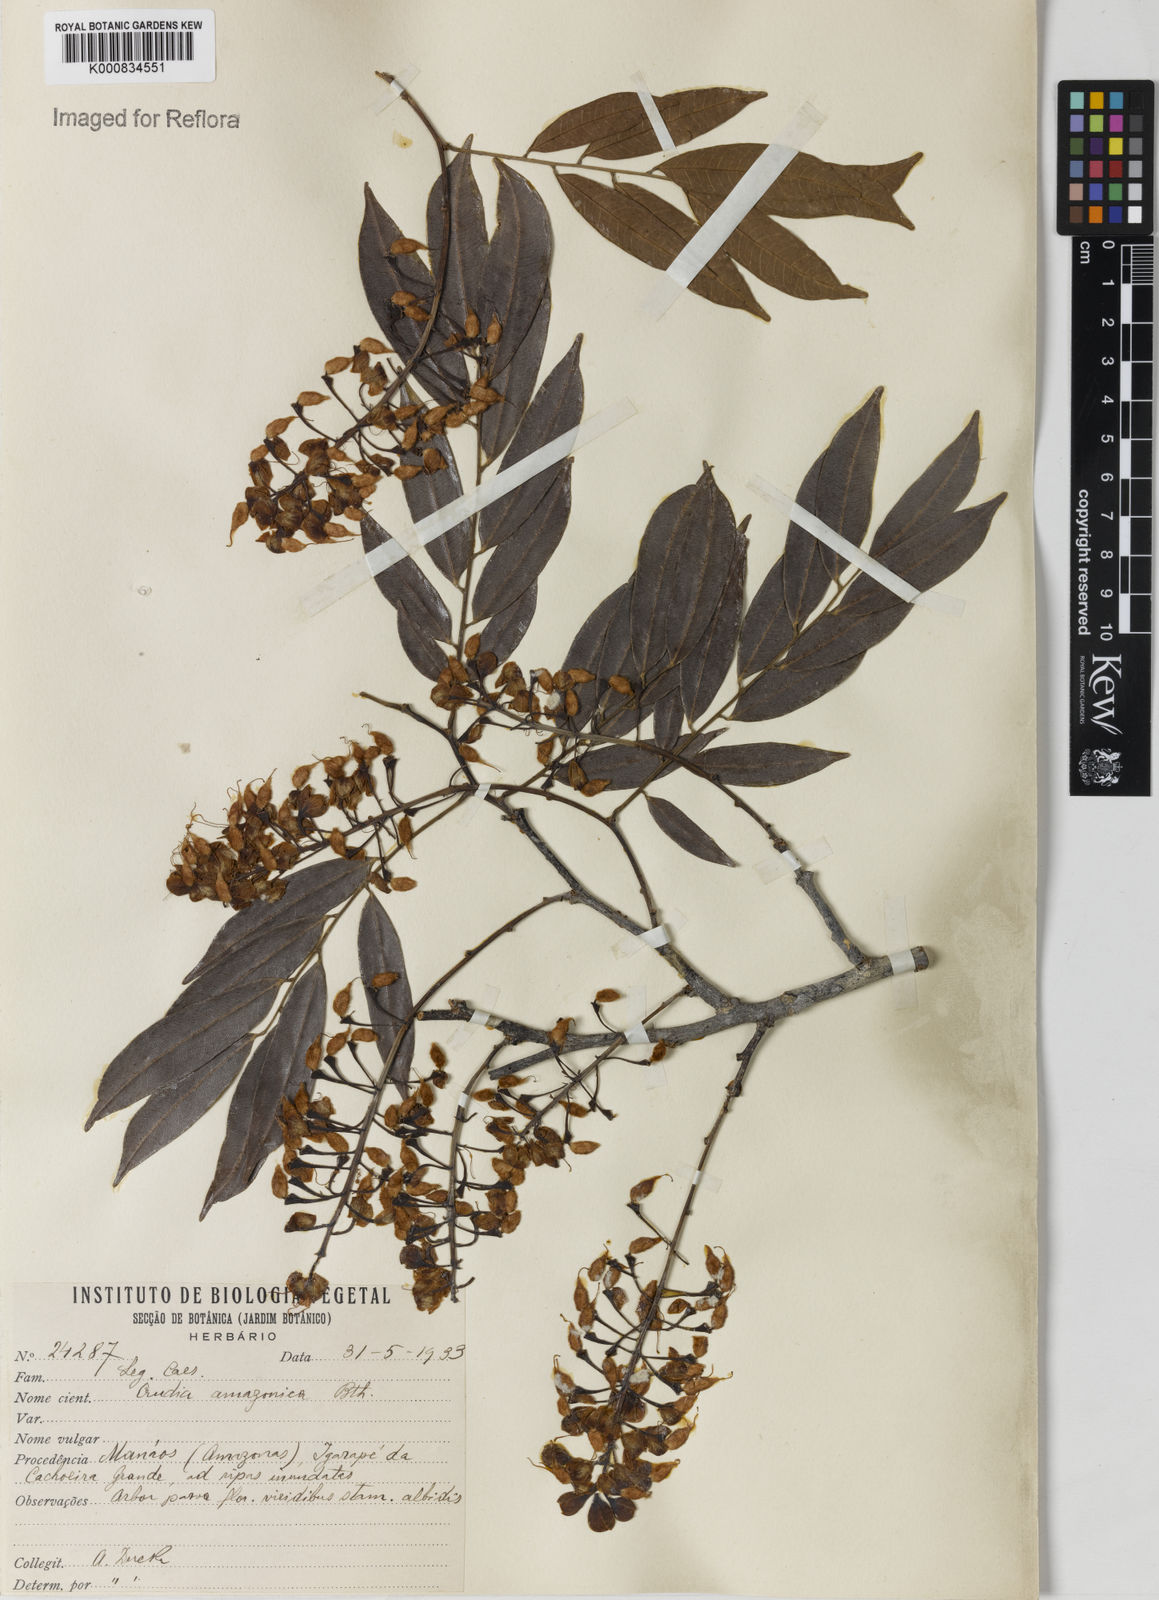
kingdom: Plantae
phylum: Tracheophyta
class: Magnoliopsida
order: Fabales
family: Fabaceae
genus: Crudia
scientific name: Crudia amazonica
